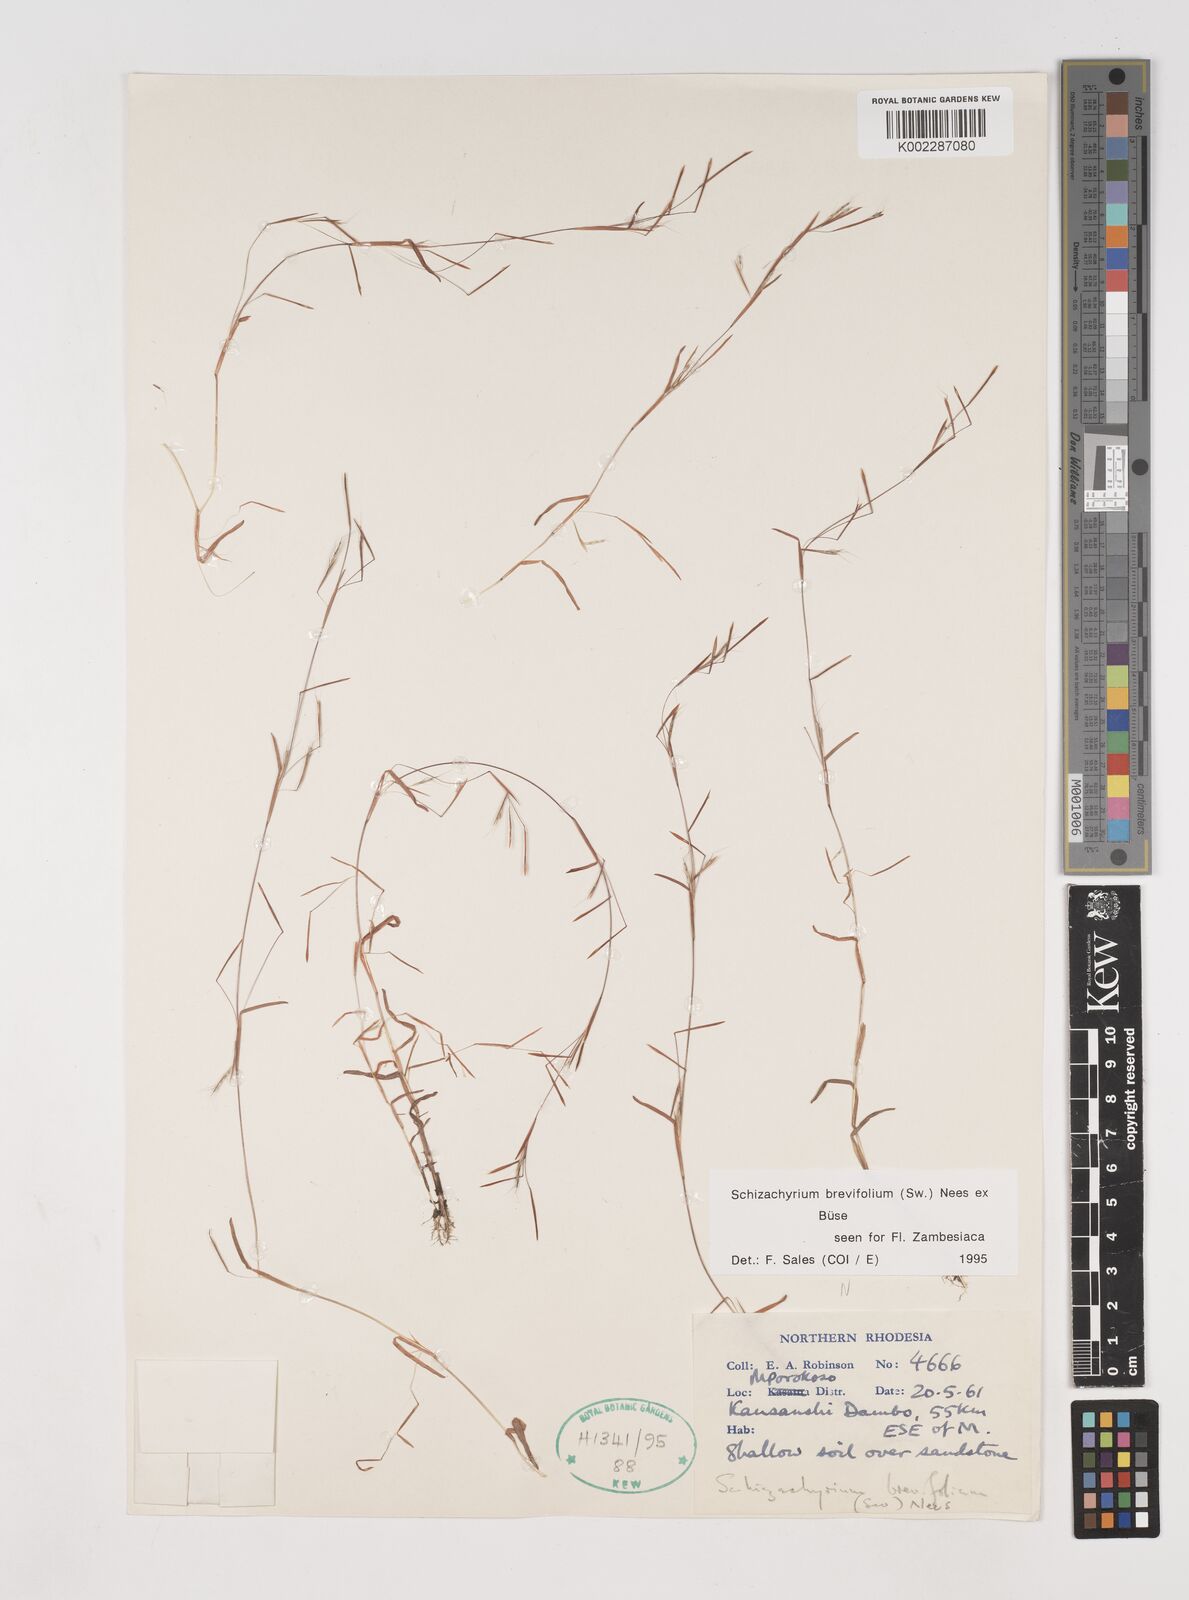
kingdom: Plantae
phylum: Tracheophyta
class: Liliopsida
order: Poales
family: Poaceae
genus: Schizachyrium
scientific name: Schizachyrium brevifolium
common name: Serillo dulce
